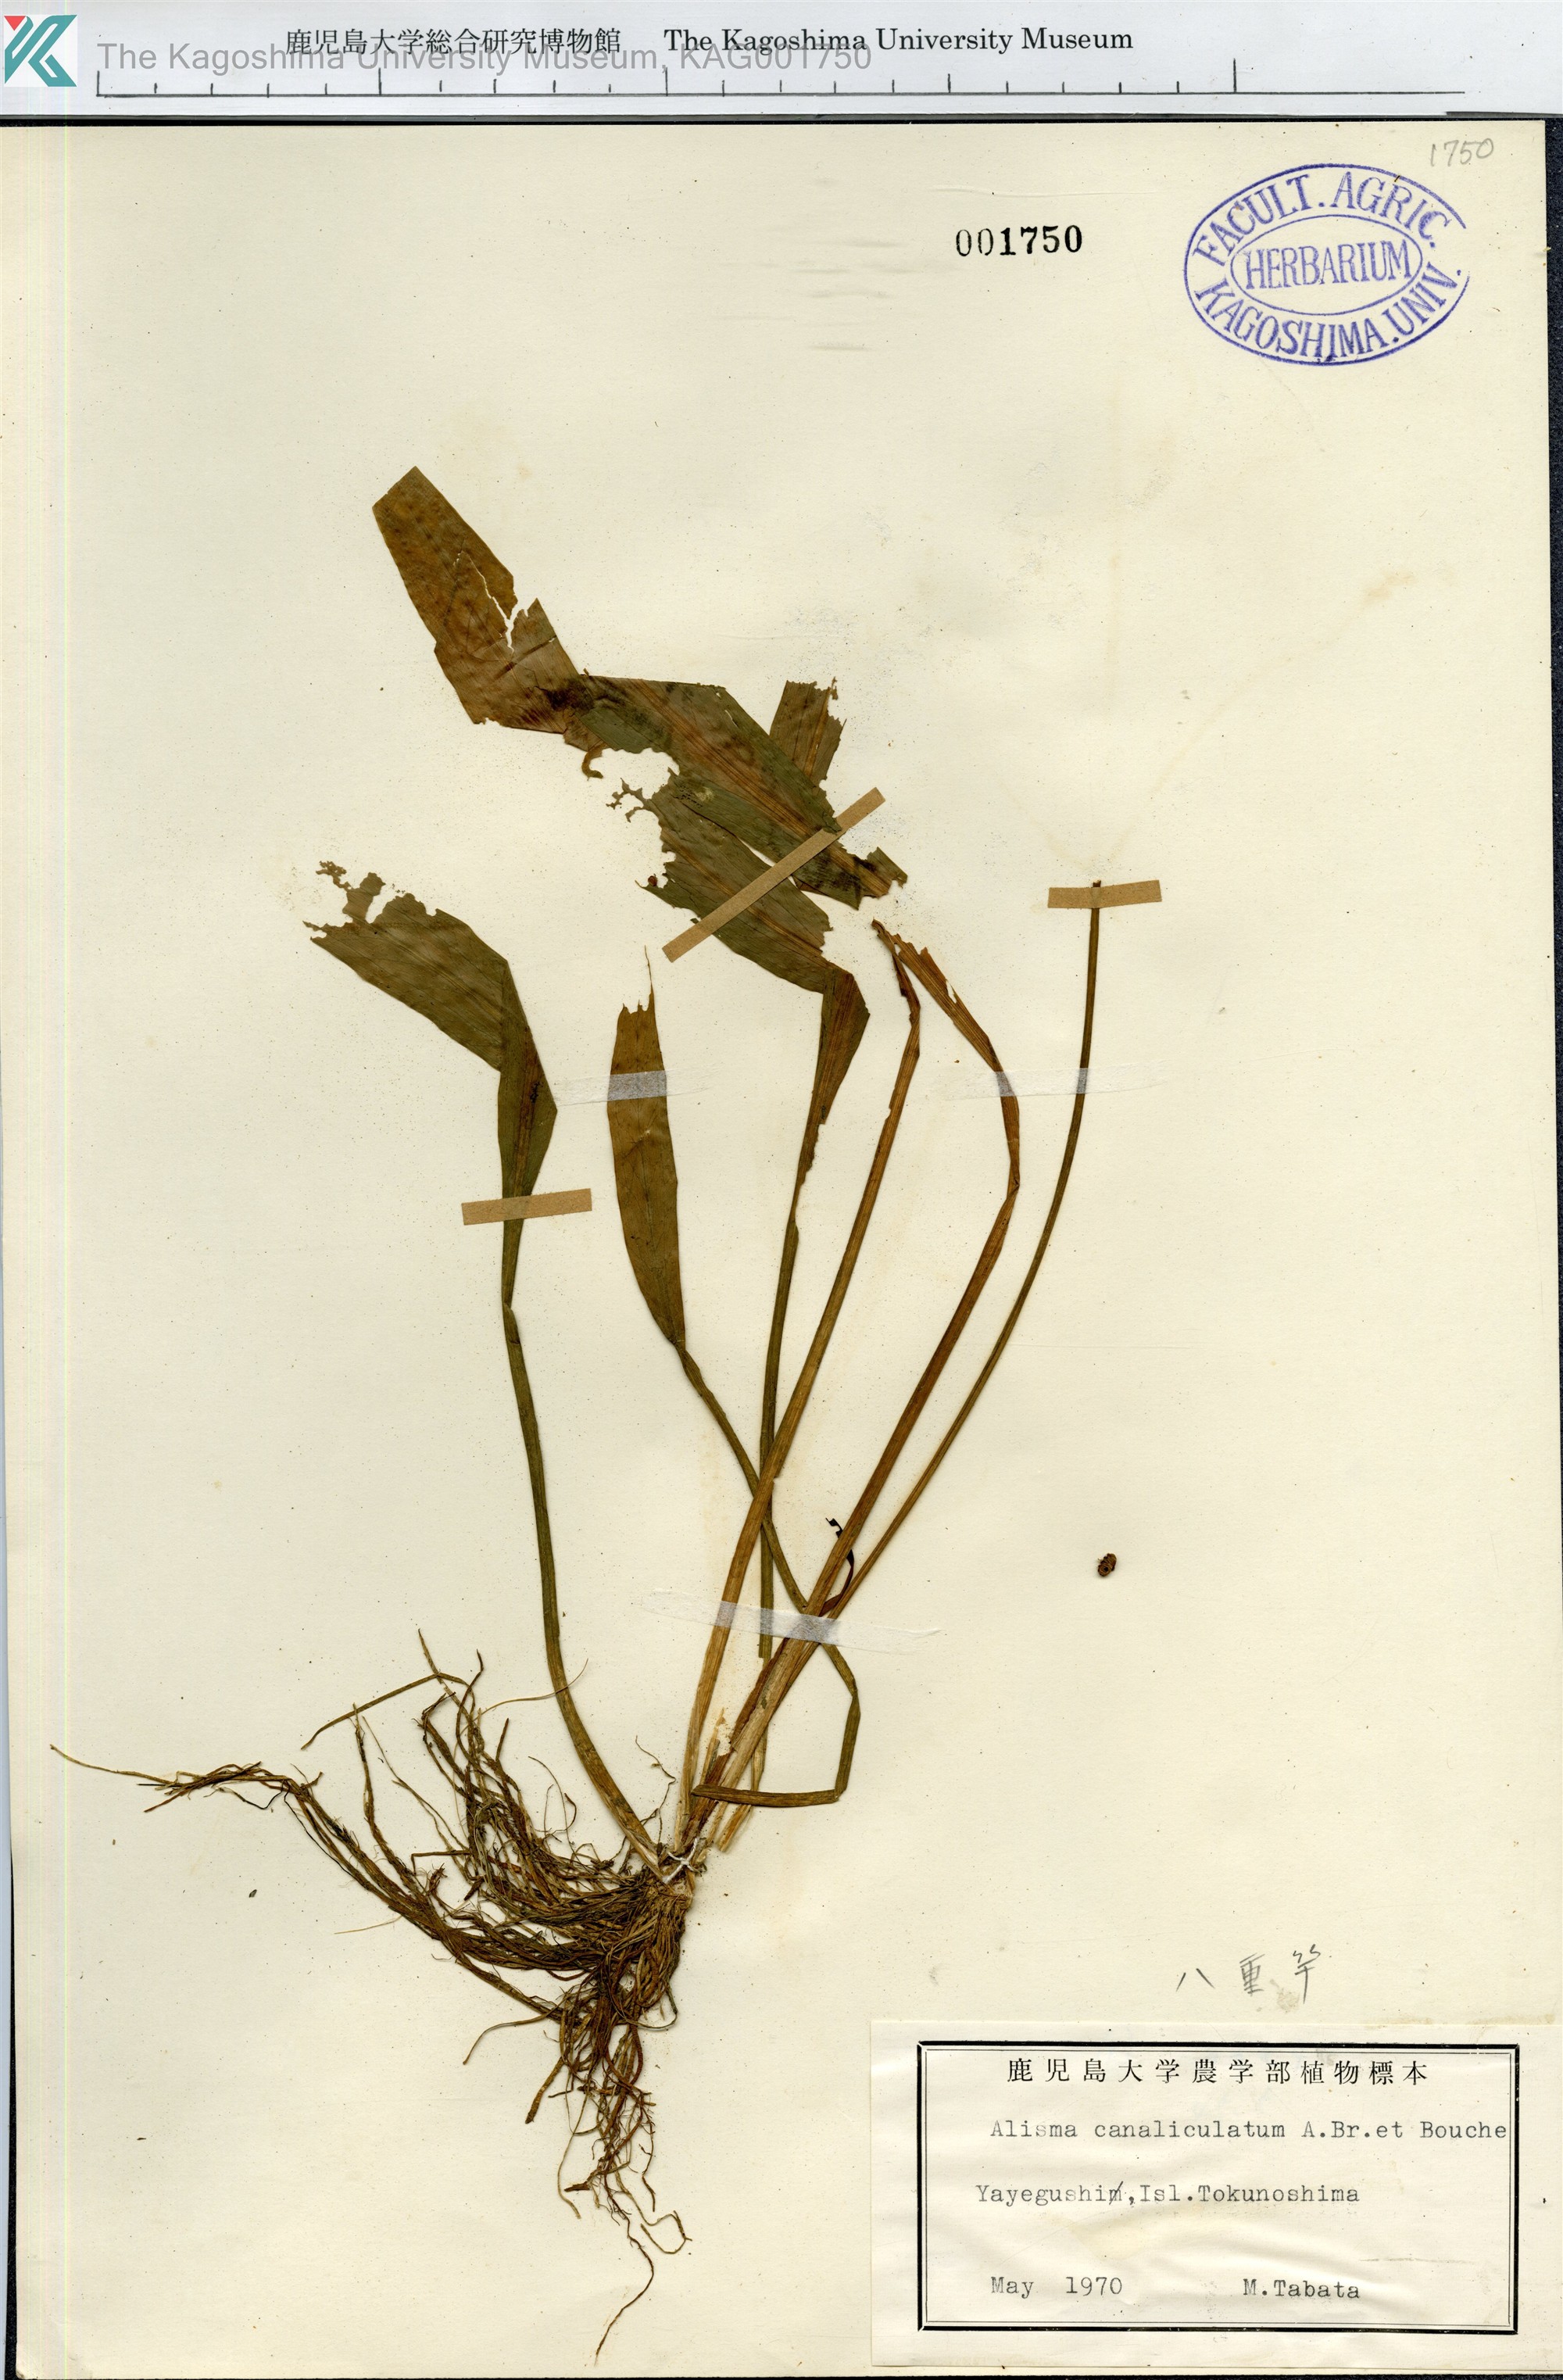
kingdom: Plantae
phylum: Tracheophyta
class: Liliopsida
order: Alismatales
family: Alismataceae
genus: Alisma
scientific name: Alisma canaliculatum
